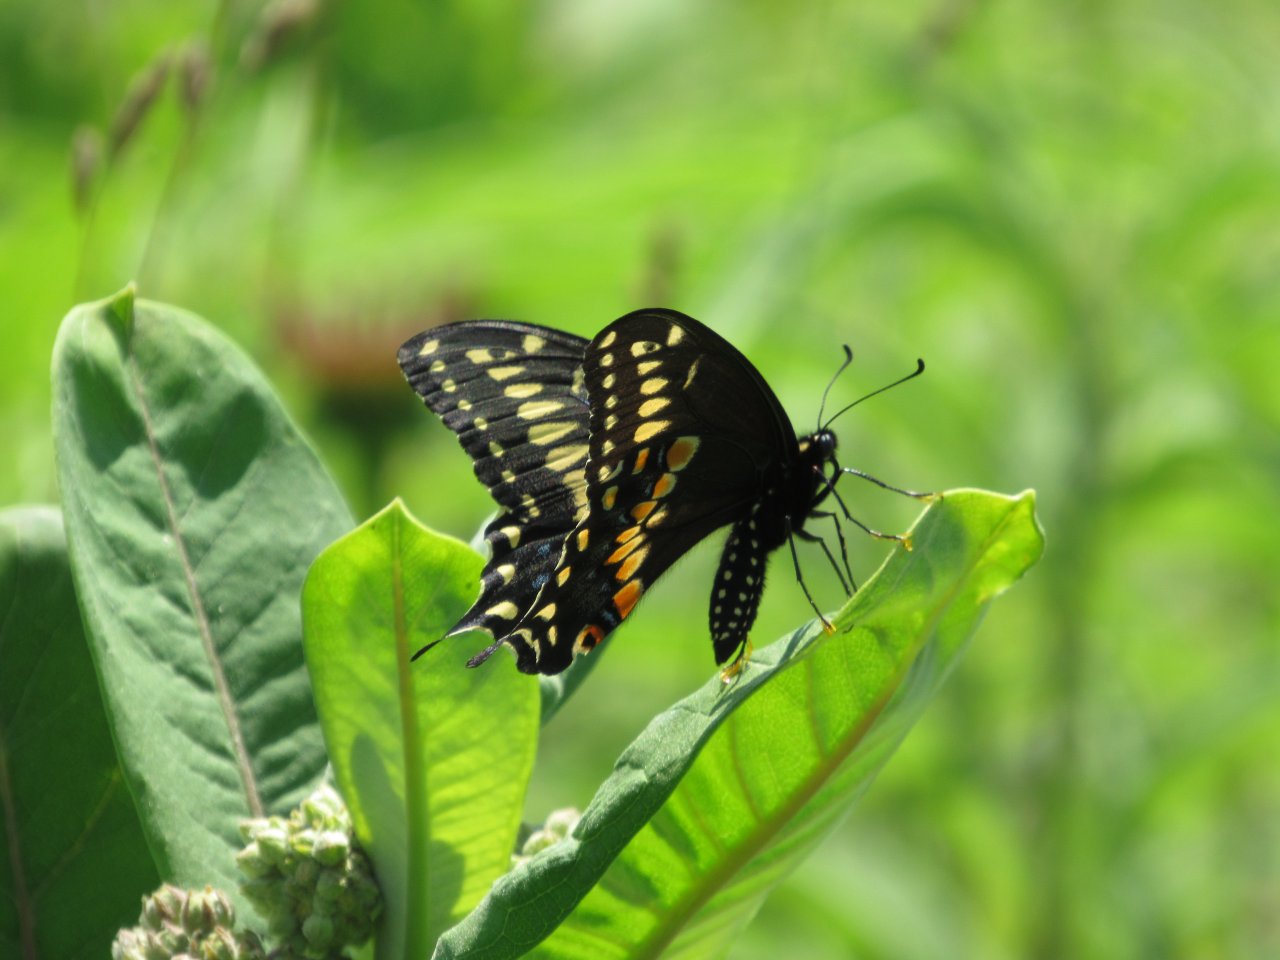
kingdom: Animalia
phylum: Arthropoda
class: Insecta
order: Lepidoptera
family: Papilionidae
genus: Papilio
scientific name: Papilio polyxenes
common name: Black Swallowtail
